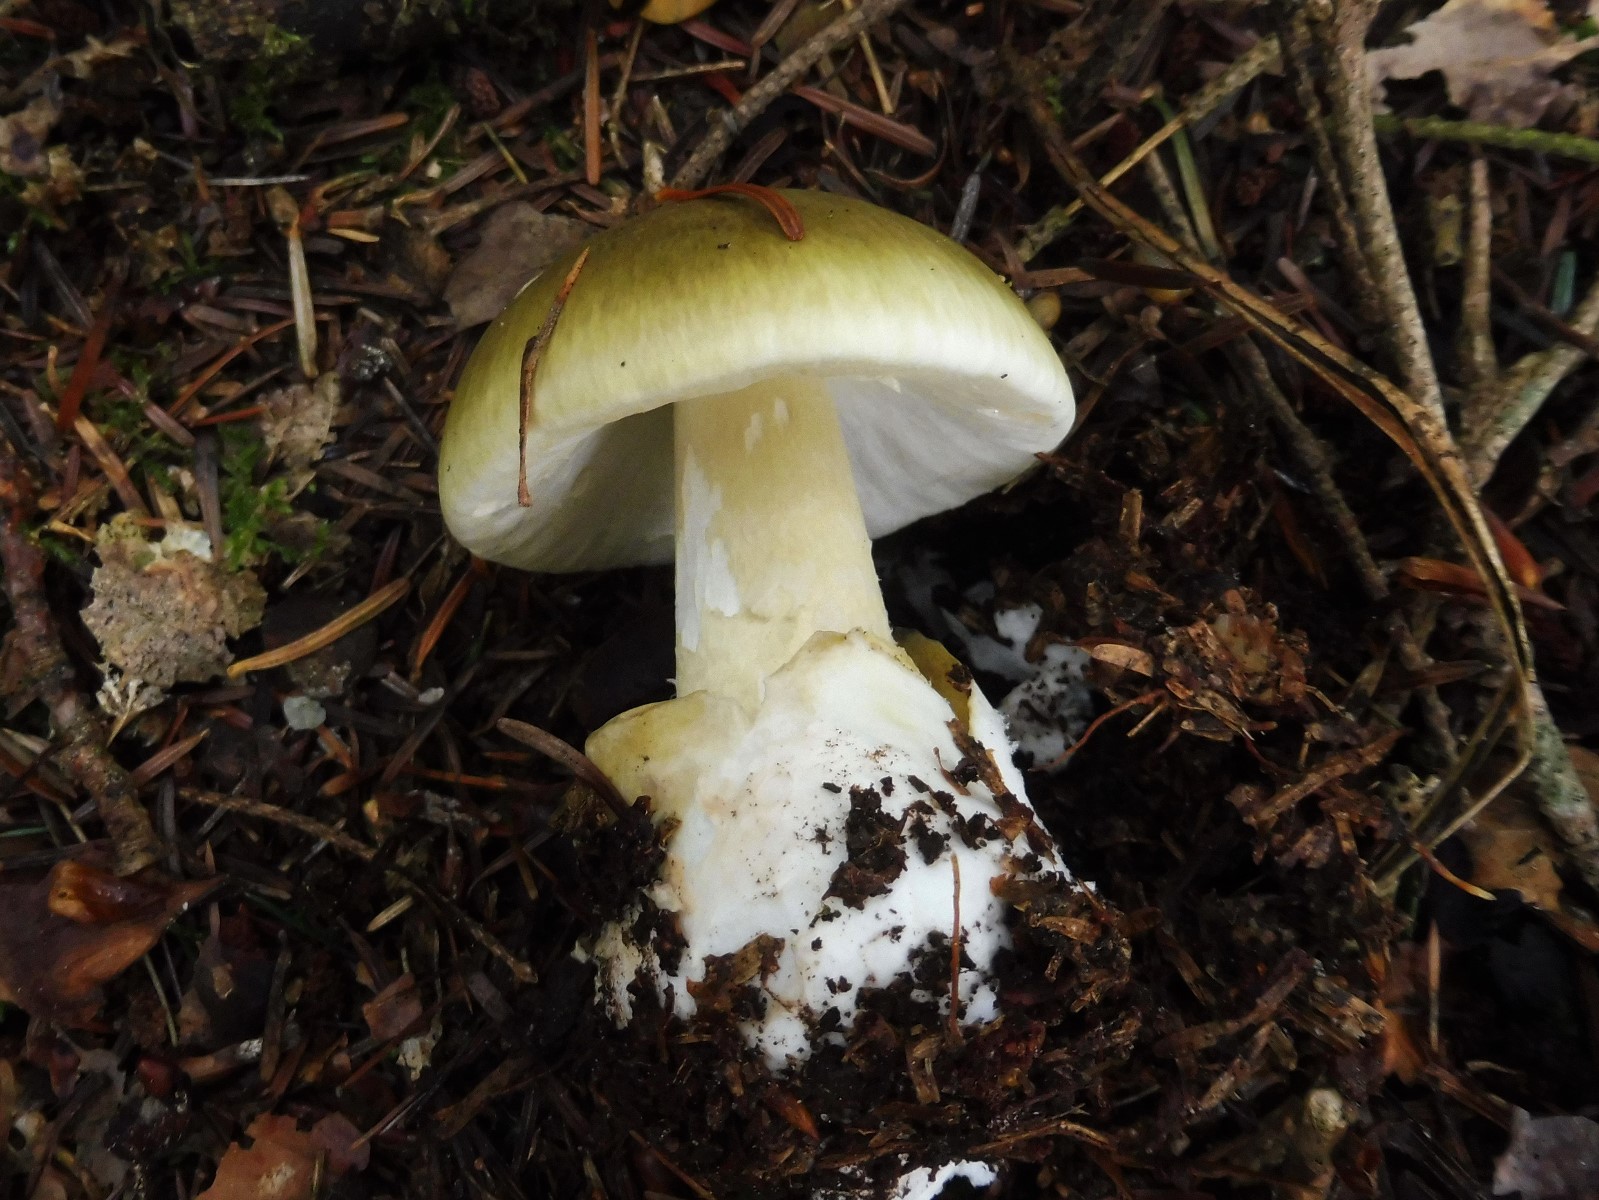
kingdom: Fungi
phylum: Basidiomycota
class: Agaricomycetes
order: Agaricales
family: Amanitaceae
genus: Amanita
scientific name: Amanita phalloides
